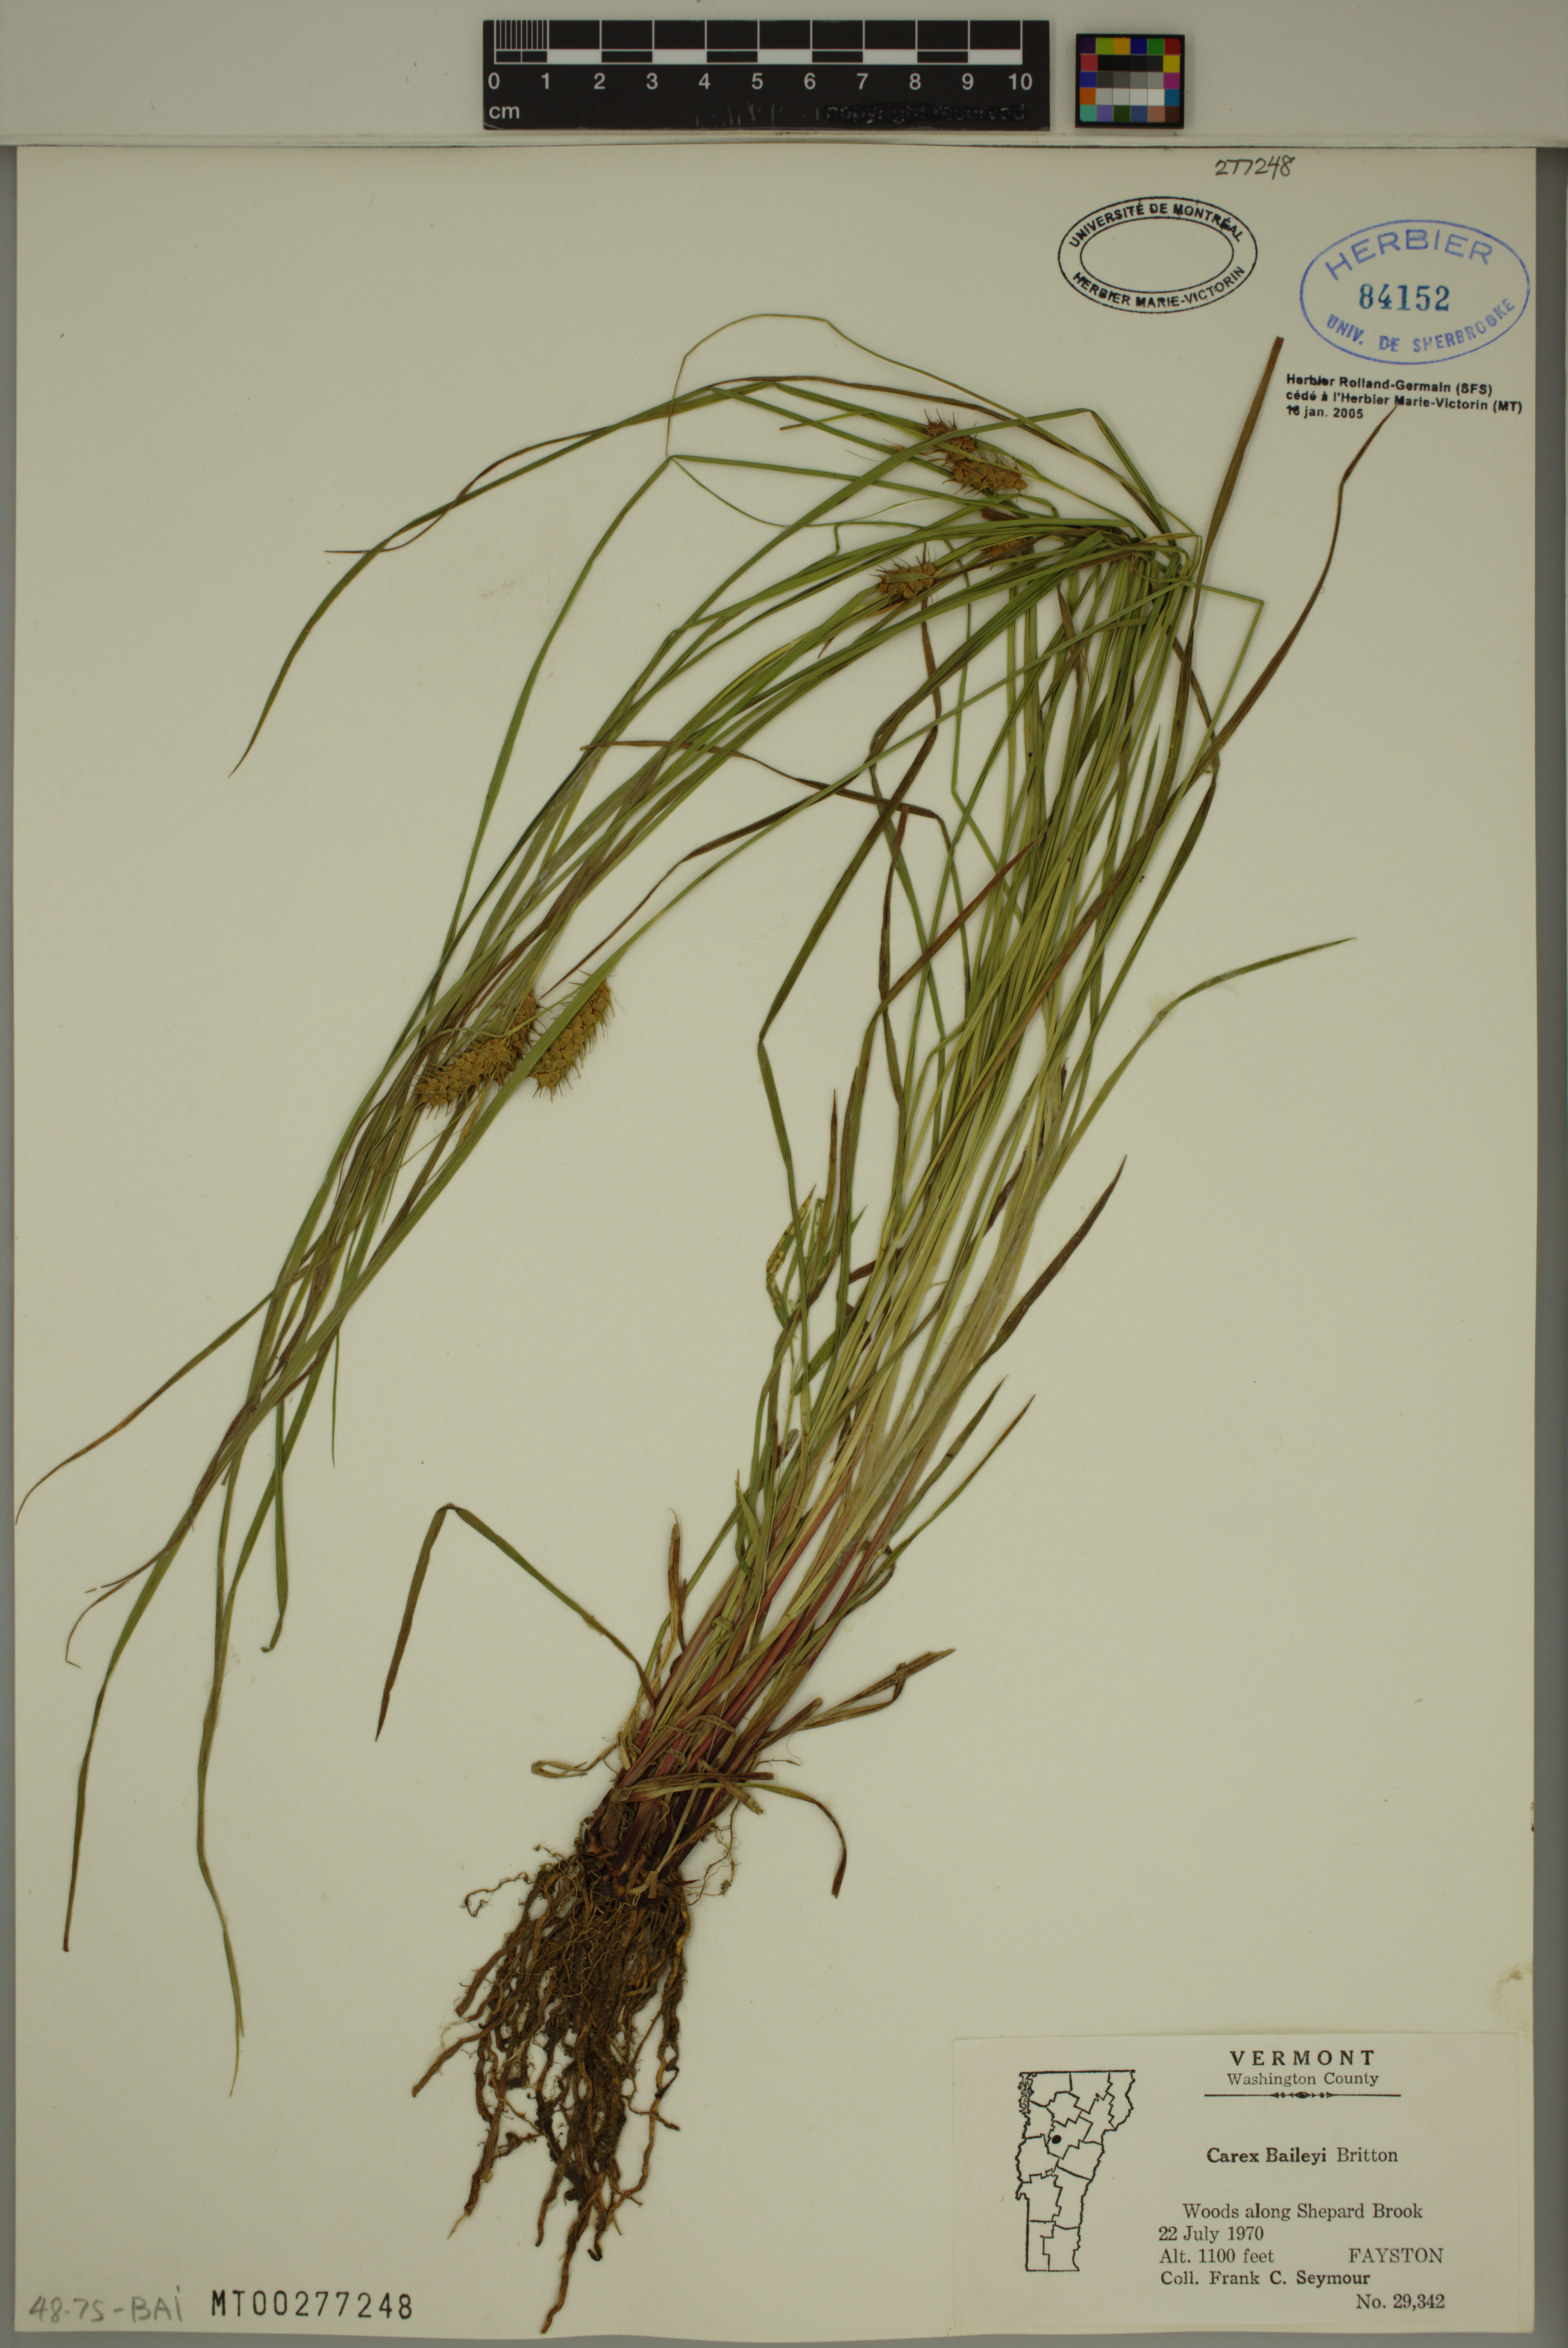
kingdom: Plantae
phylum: Tracheophyta
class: Liliopsida
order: Poales
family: Cyperaceae
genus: Carex
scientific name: Carex baileyi
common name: Bailey's sedge
